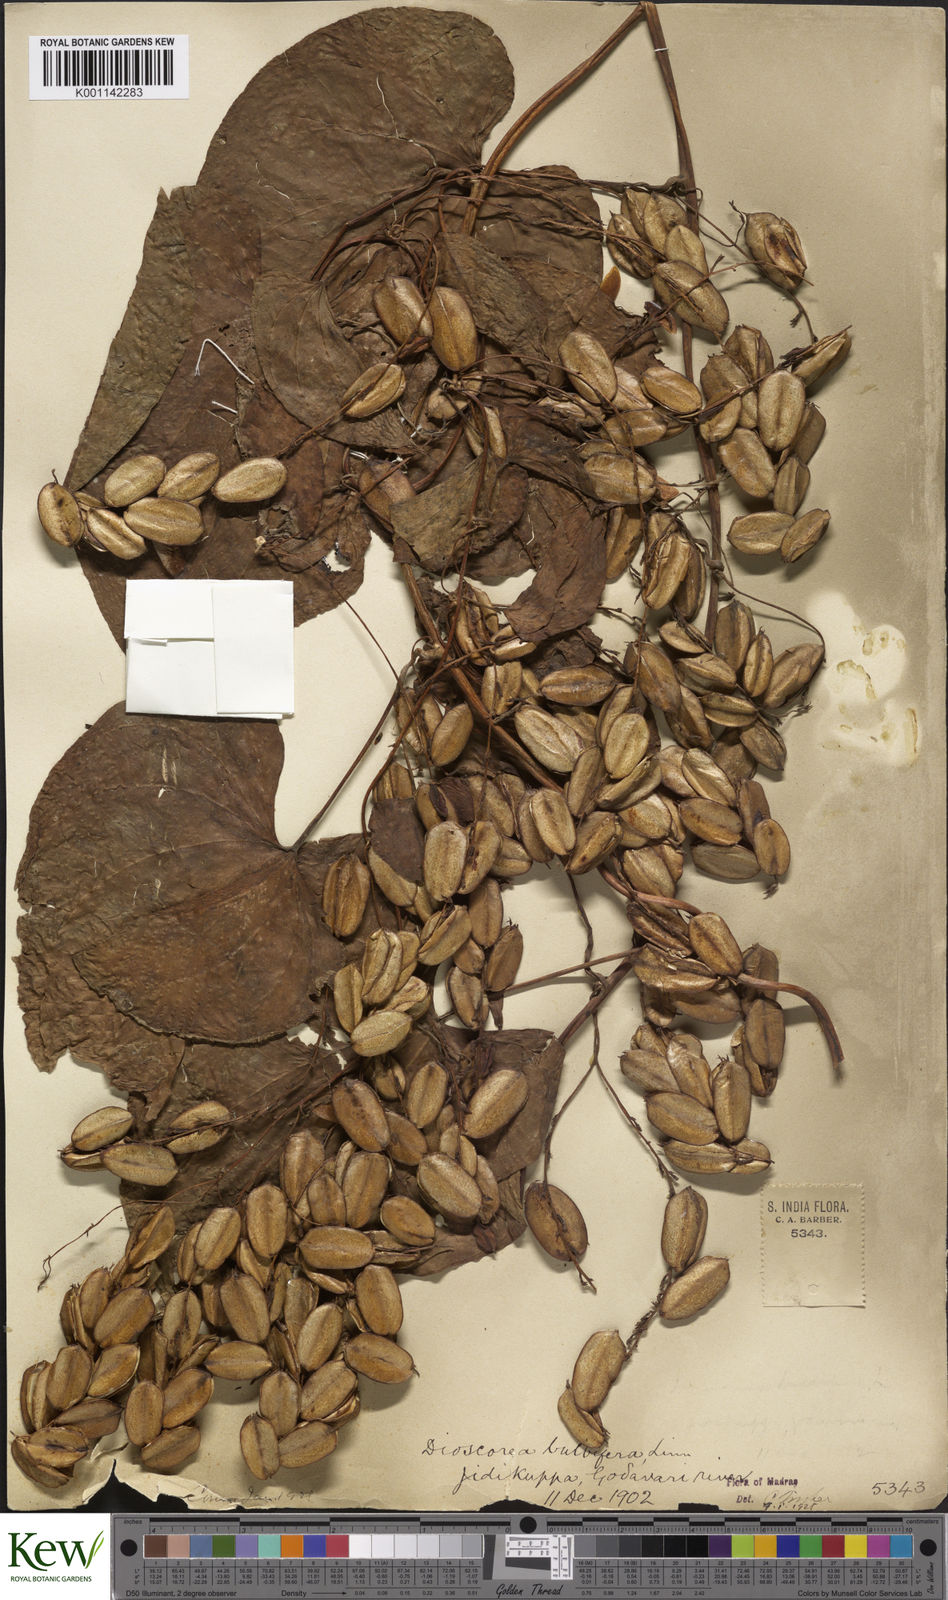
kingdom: Plantae
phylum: Tracheophyta
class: Liliopsida
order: Dioscoreales
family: Dioscoreaceae
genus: Dioscorea
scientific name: Dioscorea bulbifera
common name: Air yam
